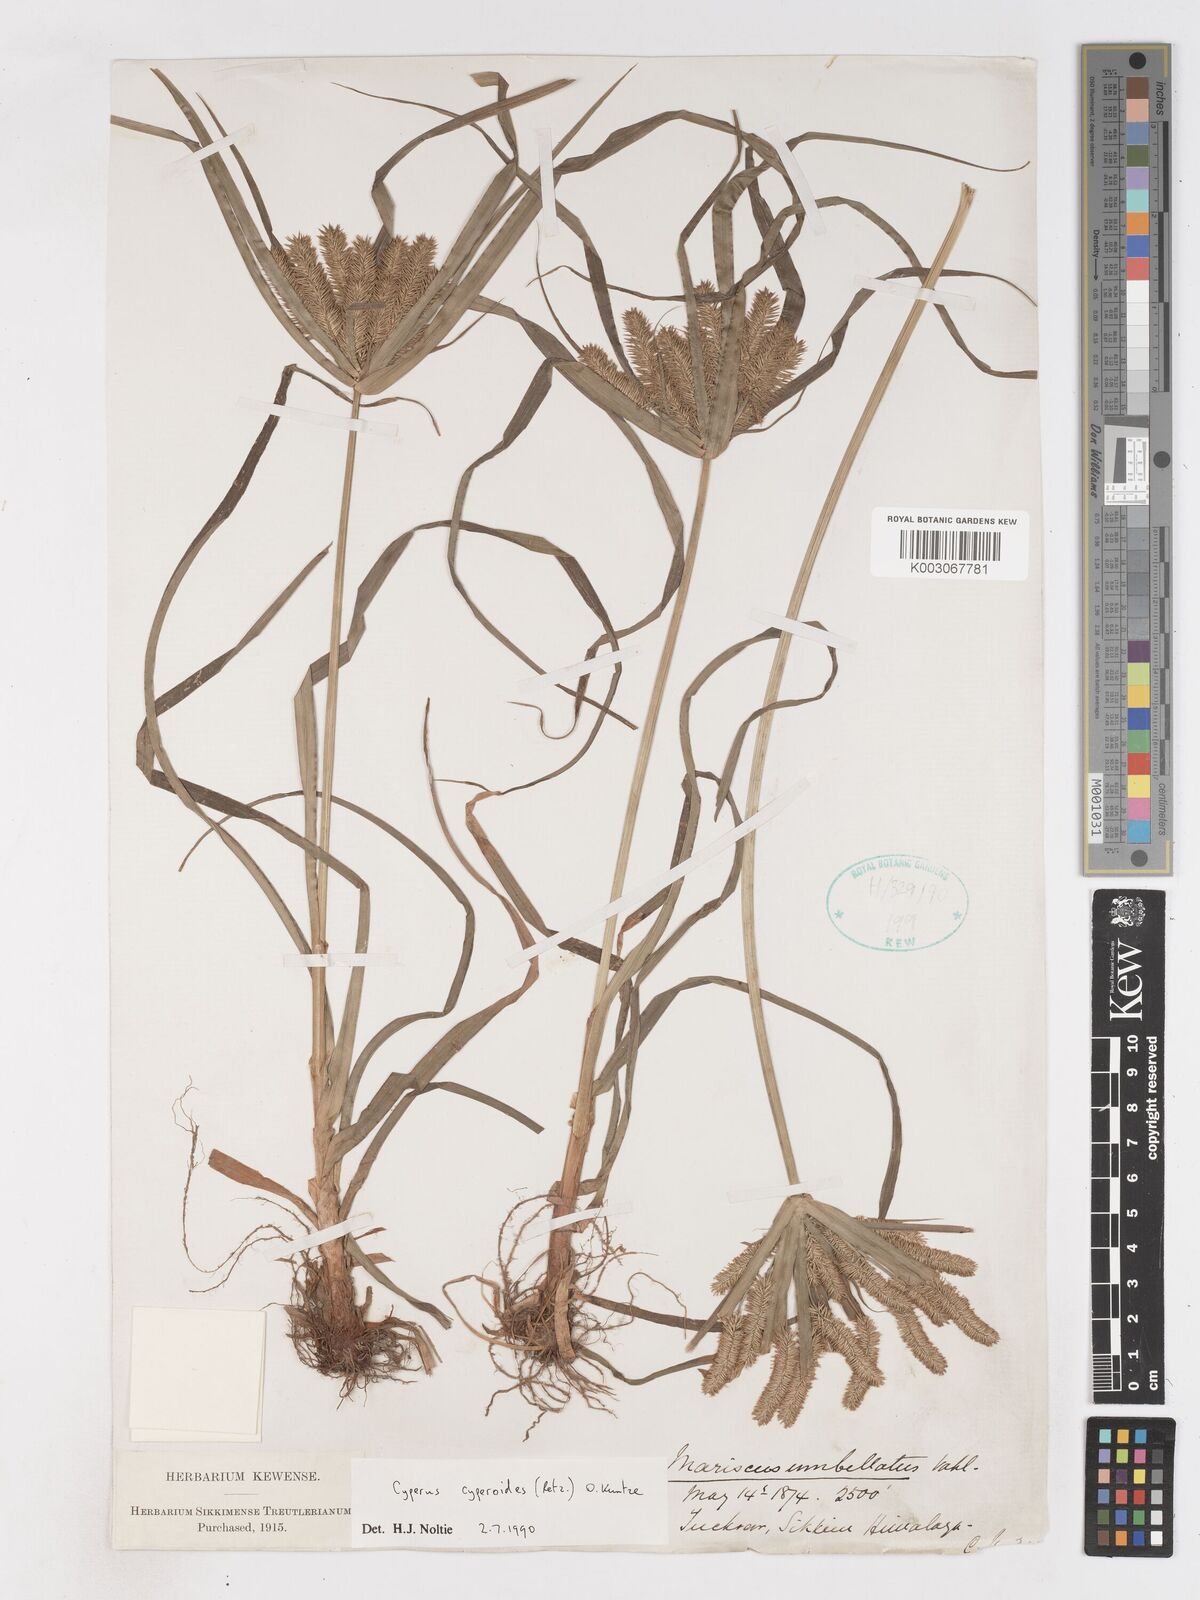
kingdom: Plantae
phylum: Tracheophyta
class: Liliopsida
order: Poales
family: Cyperaceae
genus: Cyperus
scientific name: Cyperus cyperoides
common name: Pacific island flat sedge
